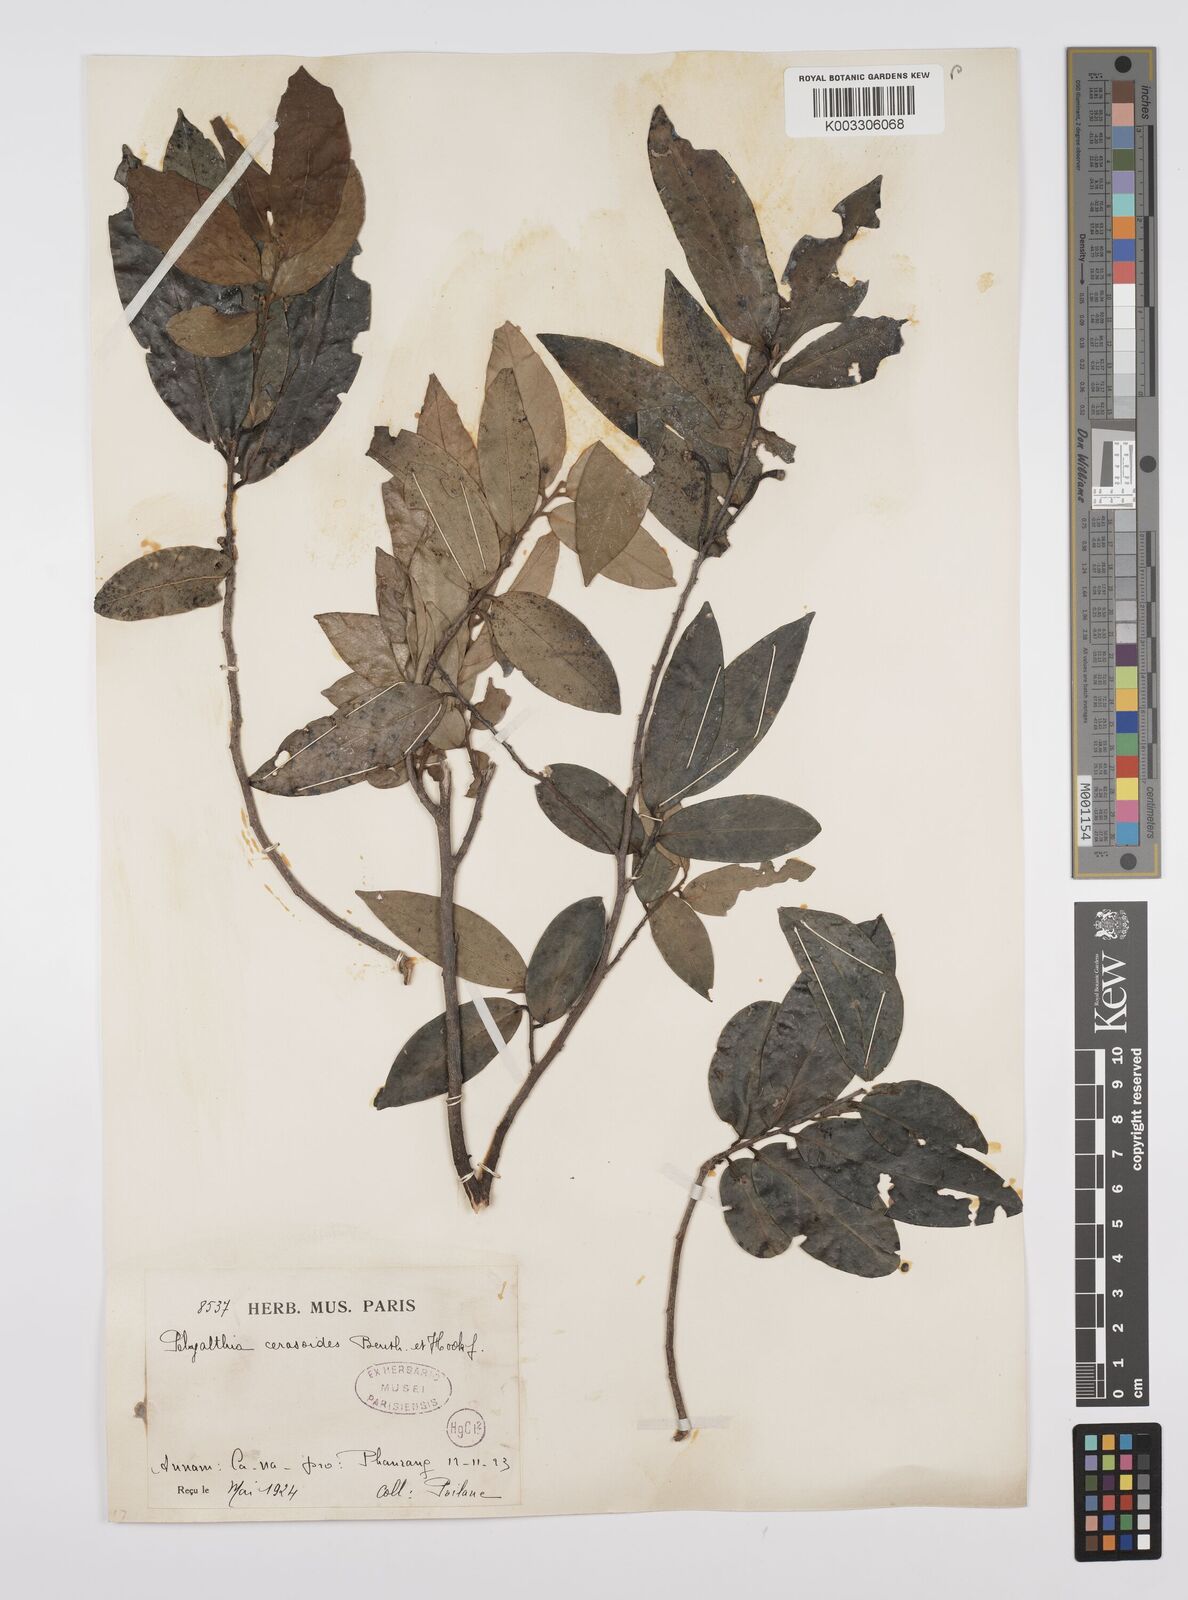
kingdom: Plantae
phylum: Tracheophyta
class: Magnoliopsida
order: Magnoliales
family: Annonaceae
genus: Hubera
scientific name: Hubera cerasoides
